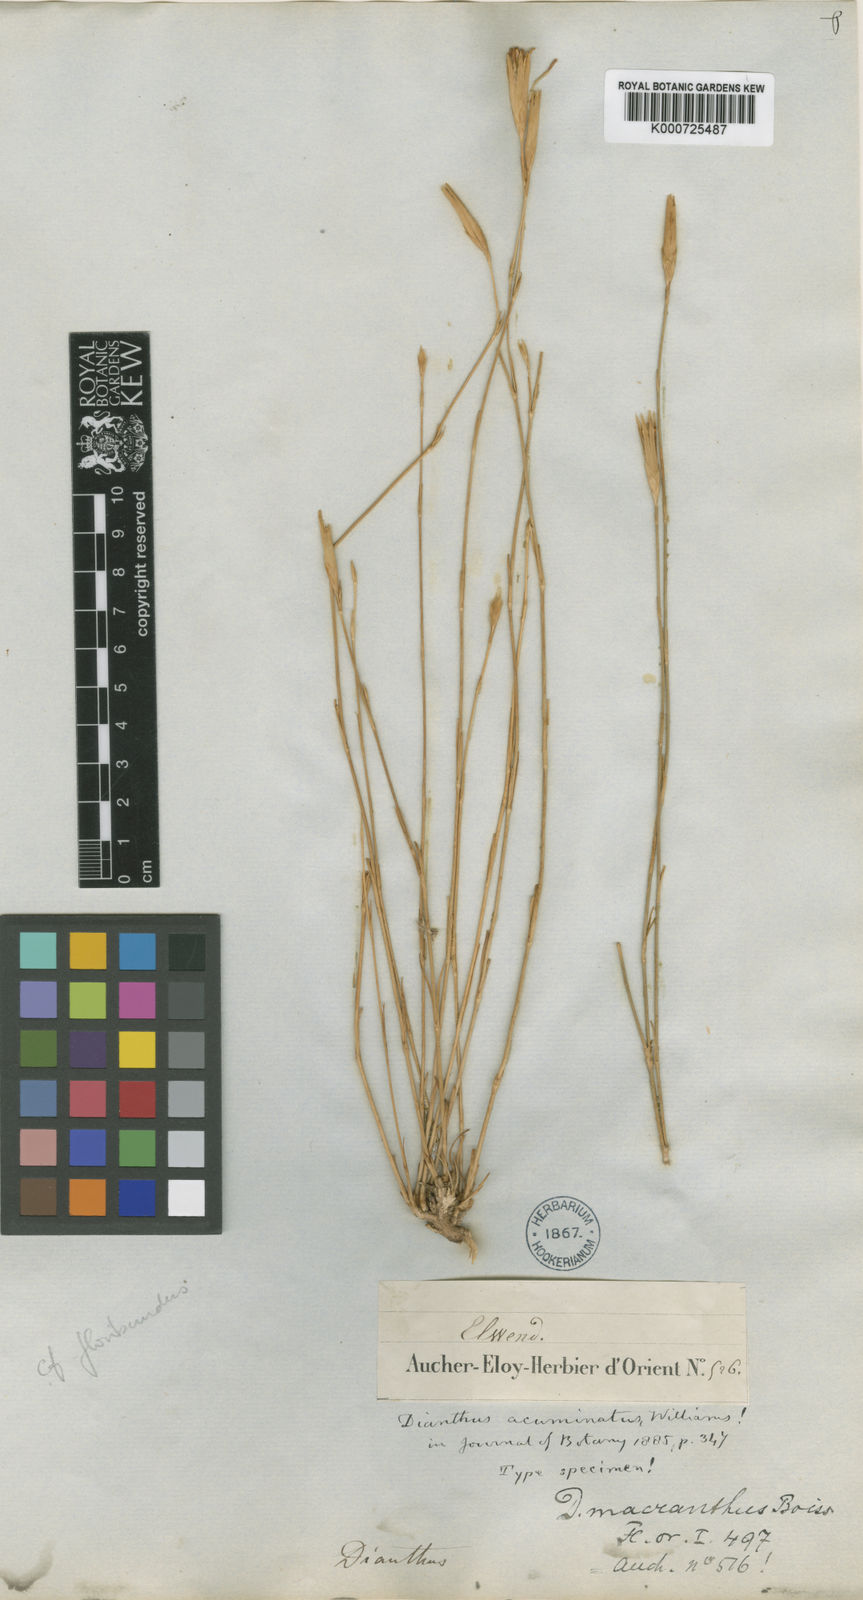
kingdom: Plantae
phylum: Tracheophyta
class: Magnoliopsida
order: Caryophyllales
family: Caryophyllaceae
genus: Dianthus
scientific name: Dianthus acuminatus
